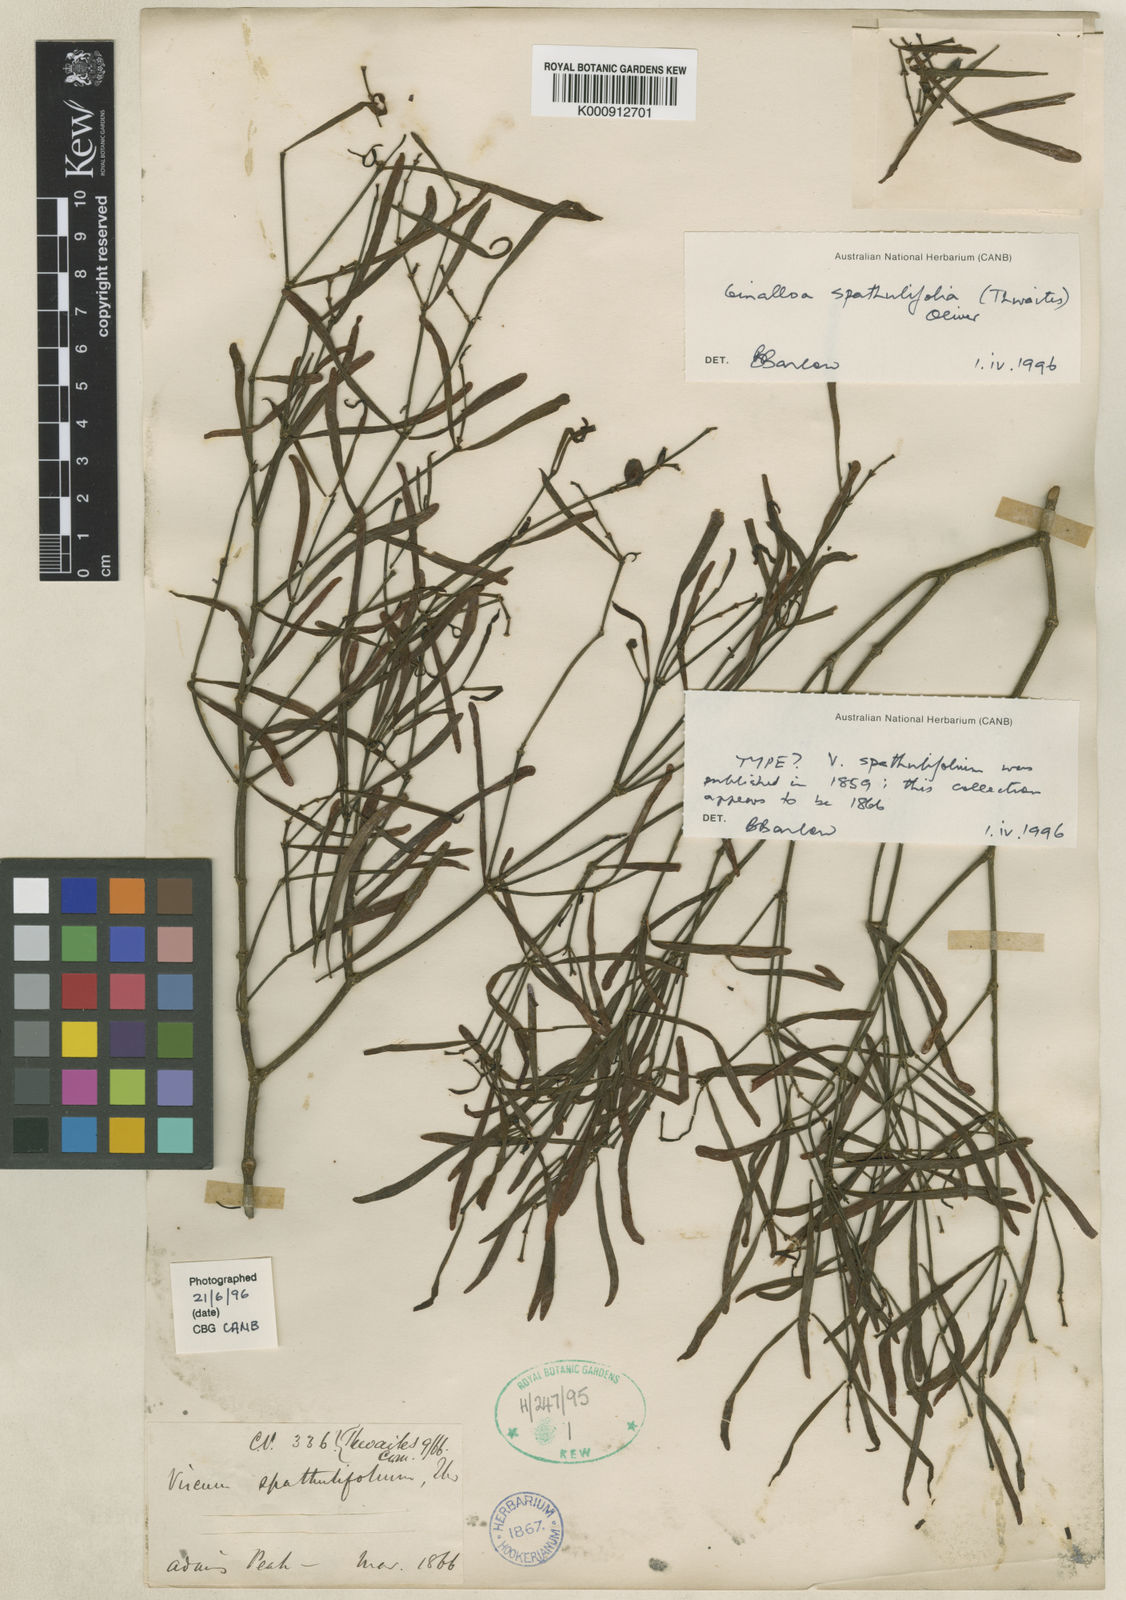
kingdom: Plantae
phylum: Tracheophyta
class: Magnoliopsida
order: Santalales
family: Viscaceae
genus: Ginalloa
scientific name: Ginalloa spathulifolia
